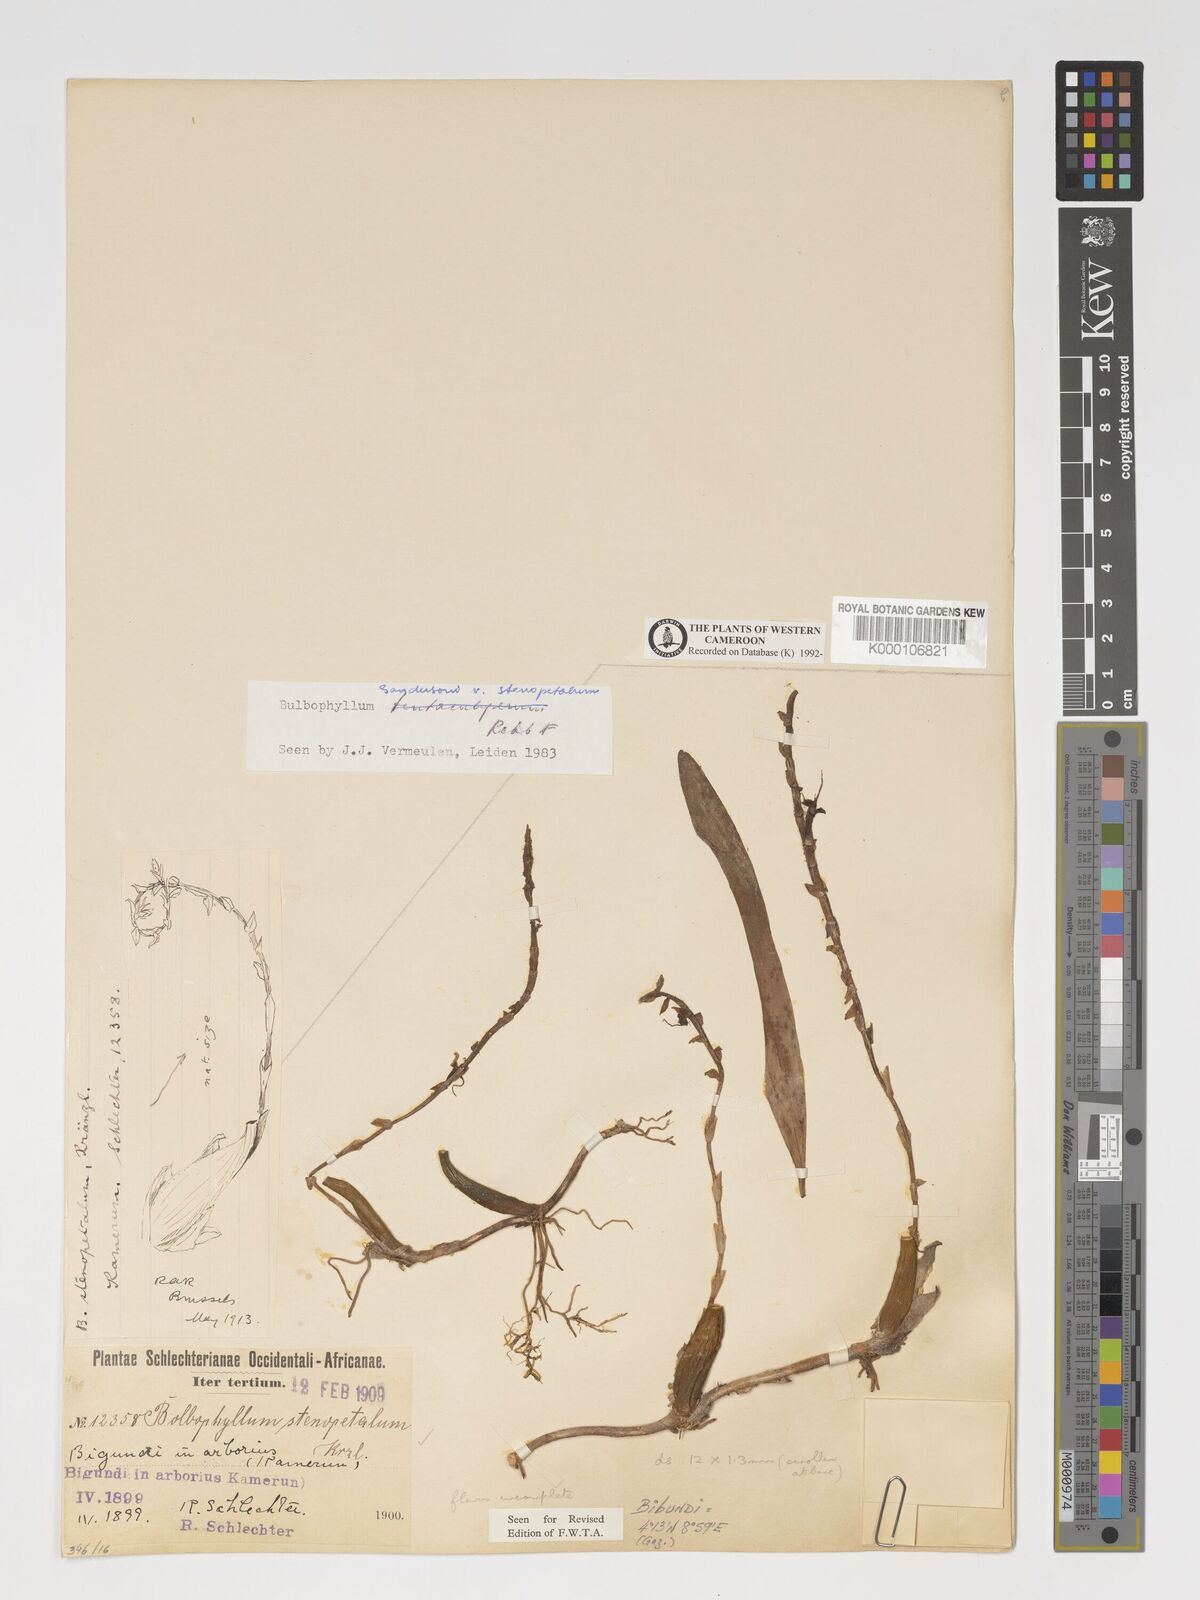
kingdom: Plantae
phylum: Tracheophyta
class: Liliopsida
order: Asparagales
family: Orchidaceae
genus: Bulbophyllum
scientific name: Bulbophyllum sandersonii
